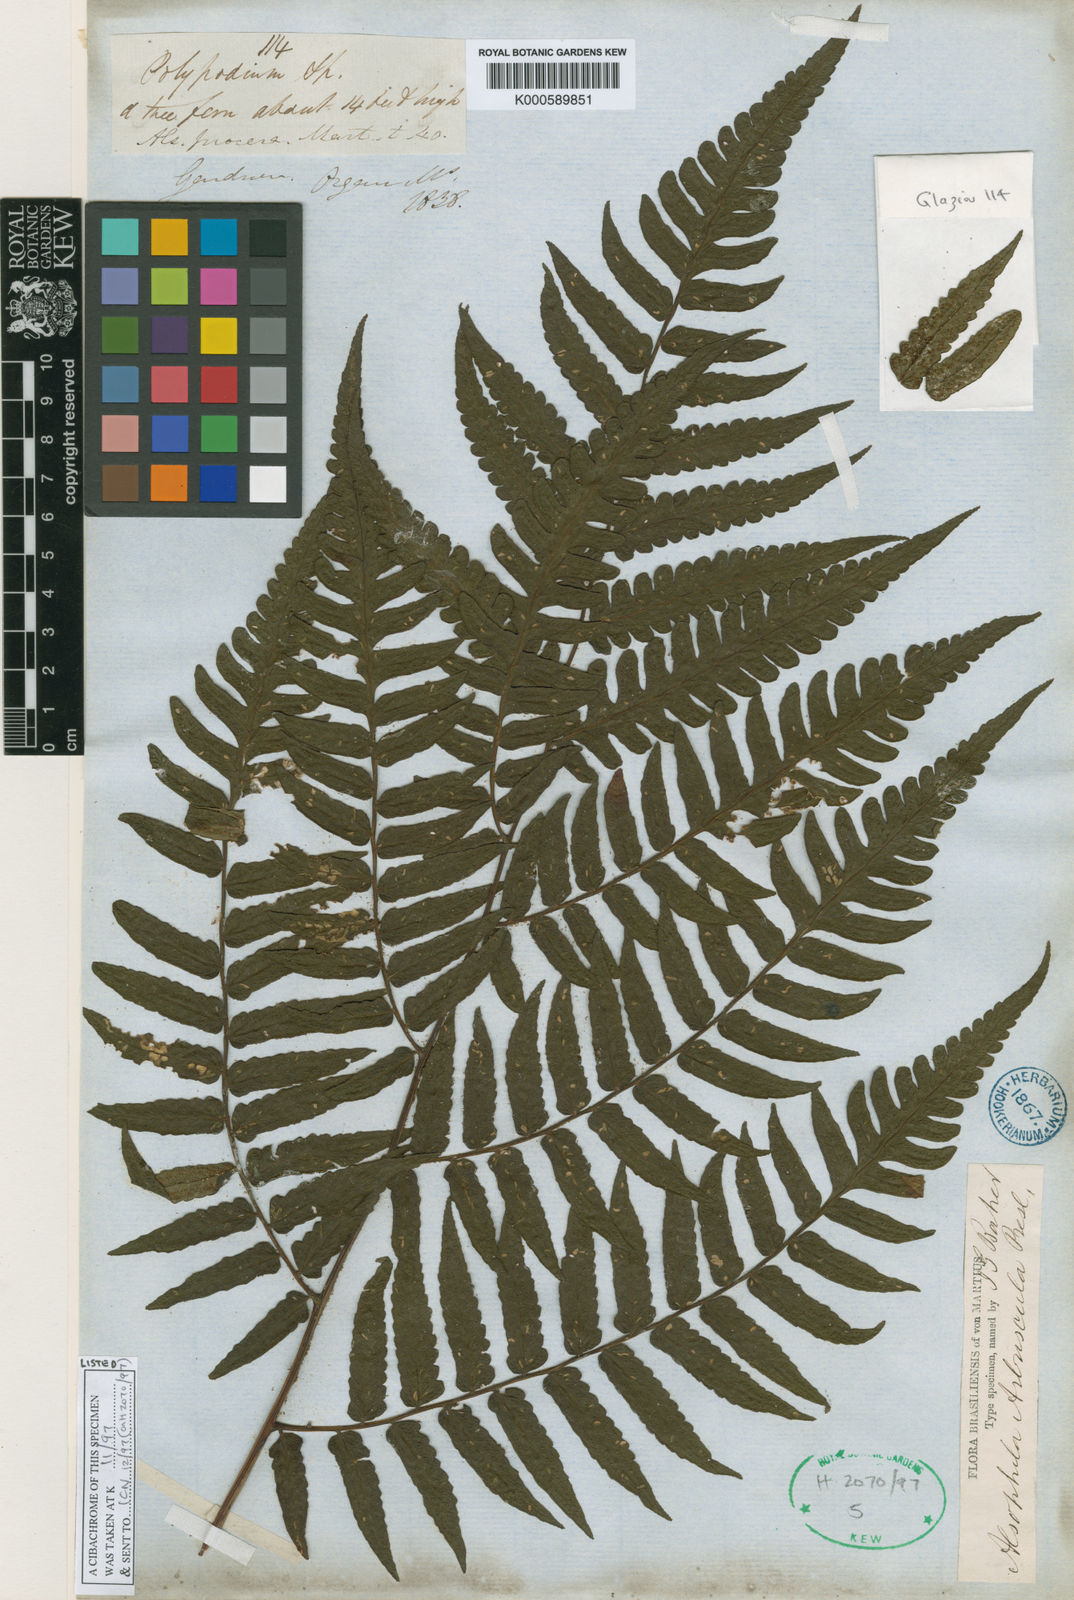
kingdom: Plantae
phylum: Tracheophyta
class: Polypodiopsida
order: Cyatheales
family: Cyatheaceae
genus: Cyathea
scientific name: Cyathea
